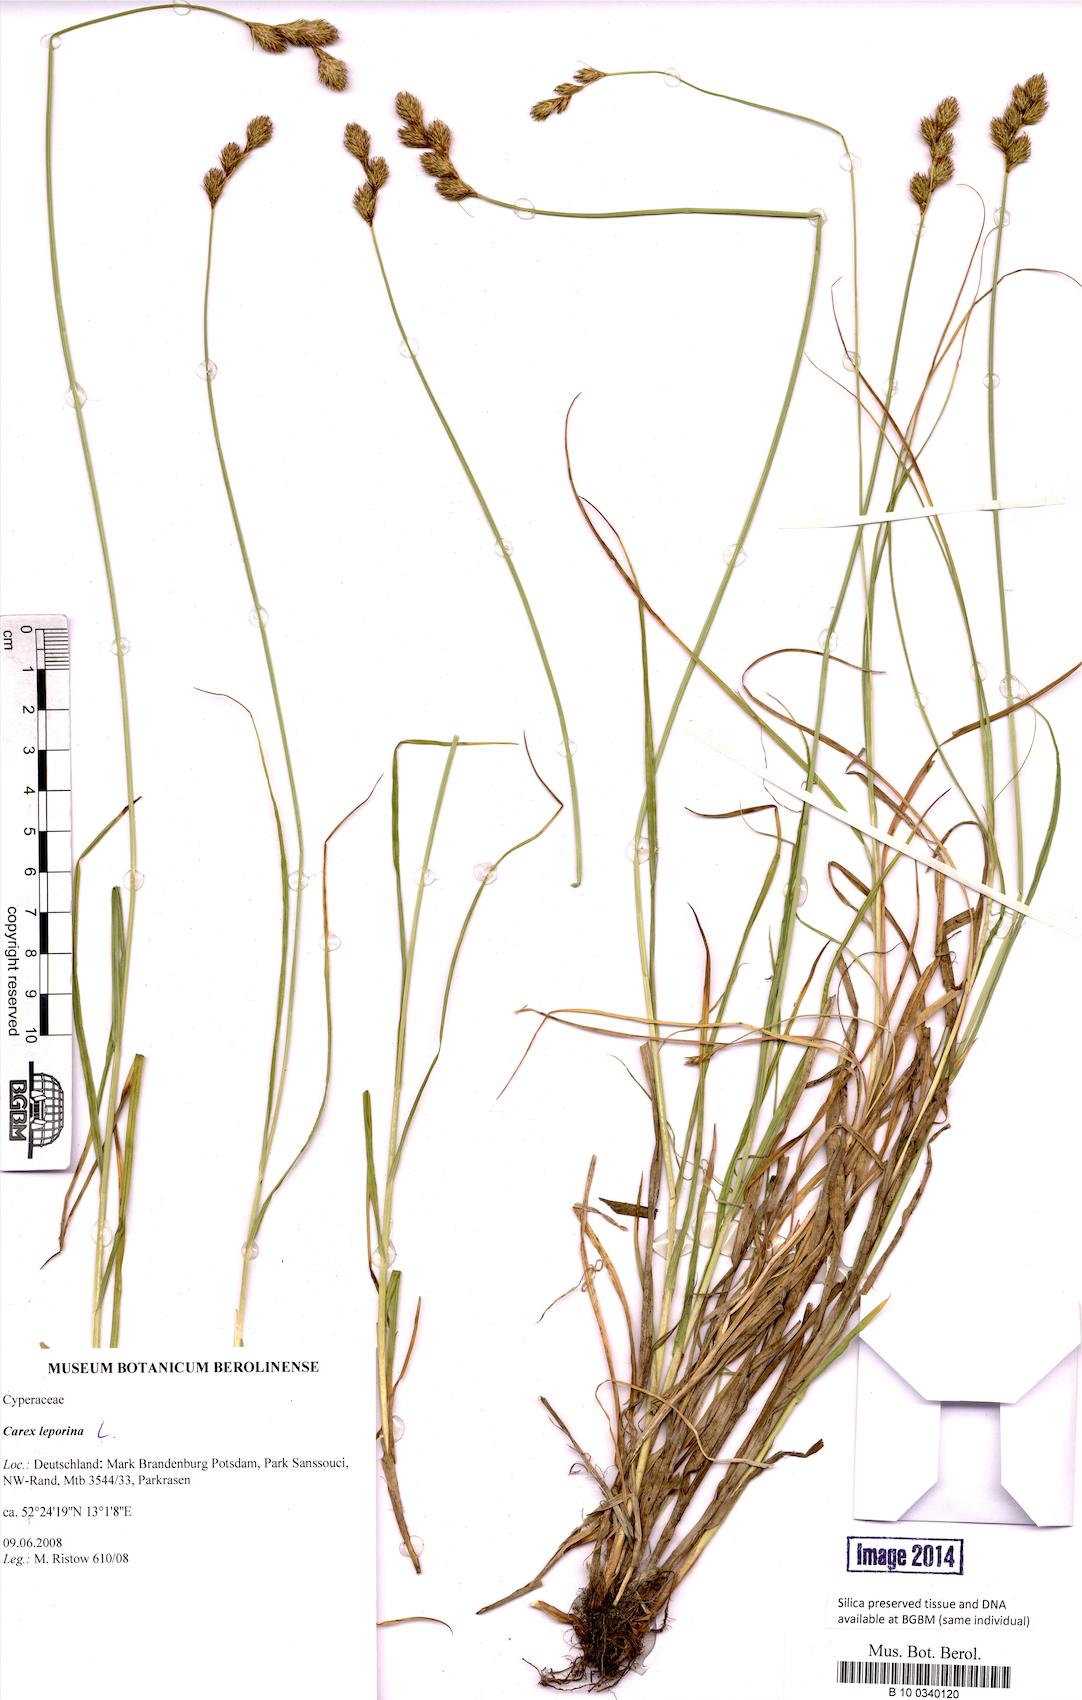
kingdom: Plantae
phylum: Tracheophyta
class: Liliopsida
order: Poales
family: Cyperaceae
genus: Carex
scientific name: Carex leporina
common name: Oval sedge
